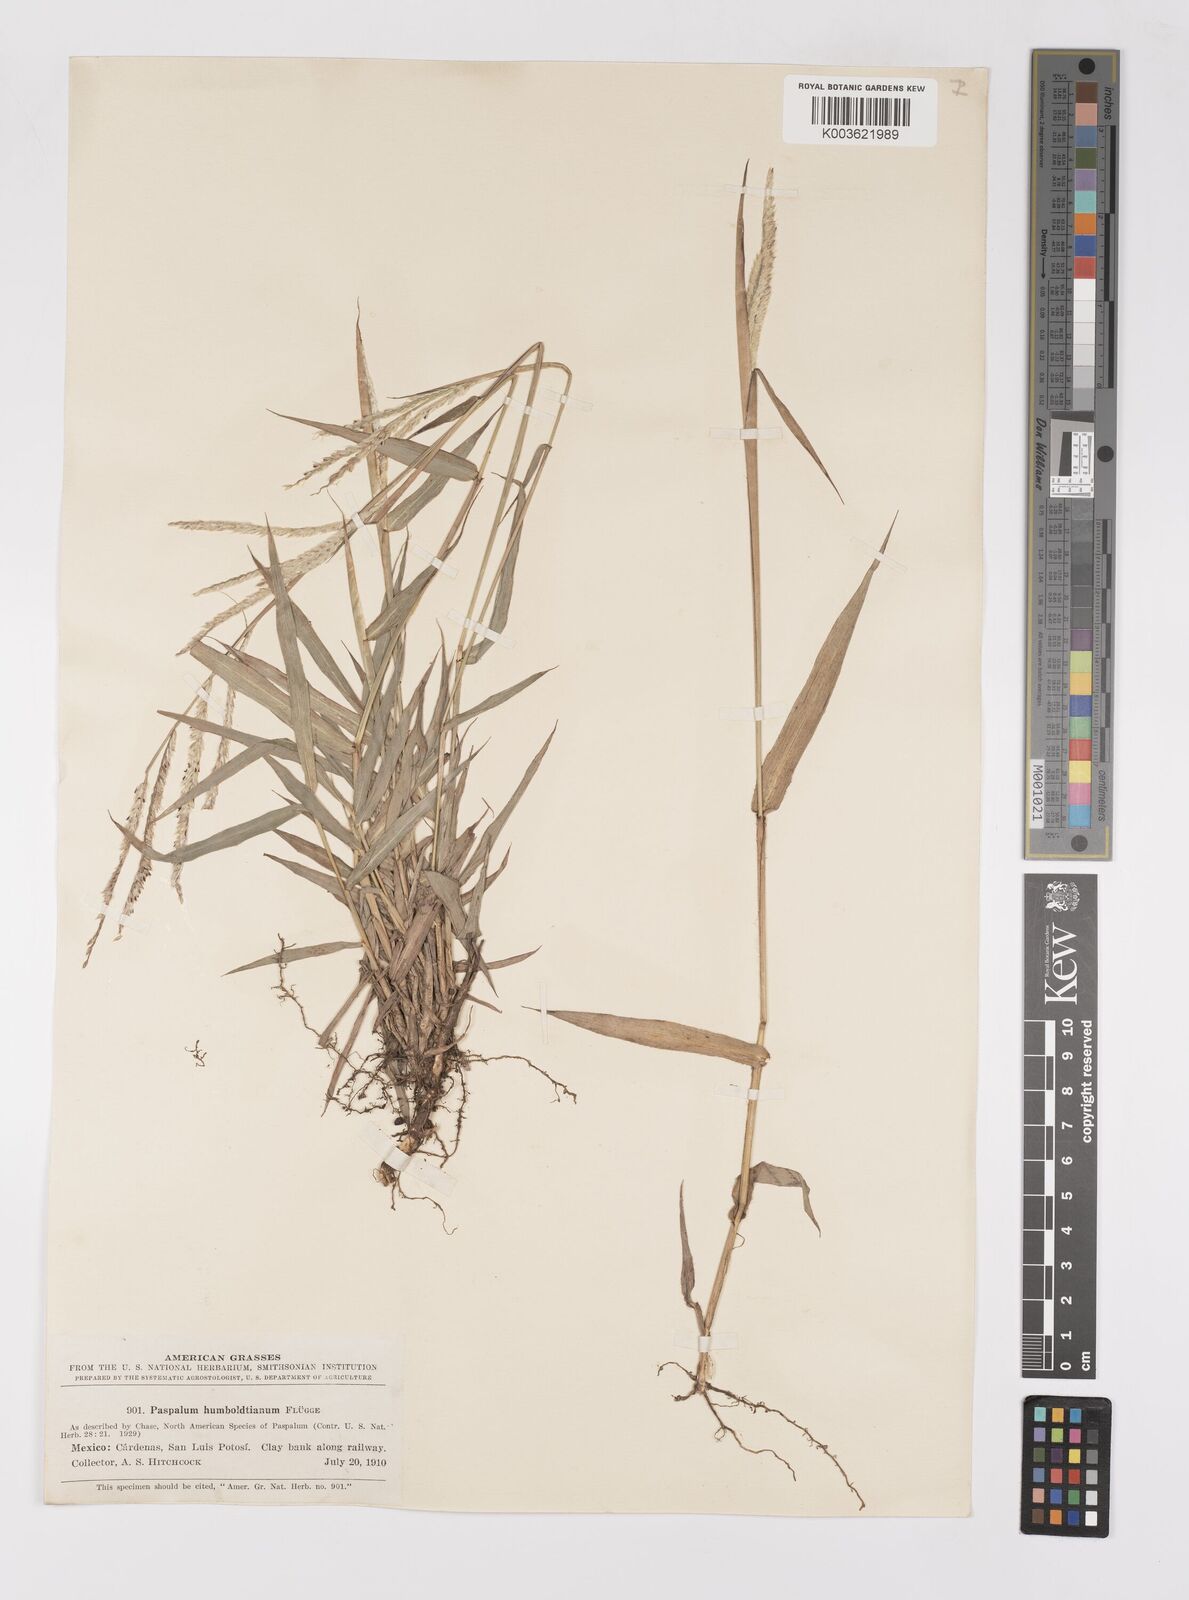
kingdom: Plantae
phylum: Tracheophyta
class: Liliopsida
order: Poales
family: Poaceae
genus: Paspalum
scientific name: Paspalum humboldtianum
